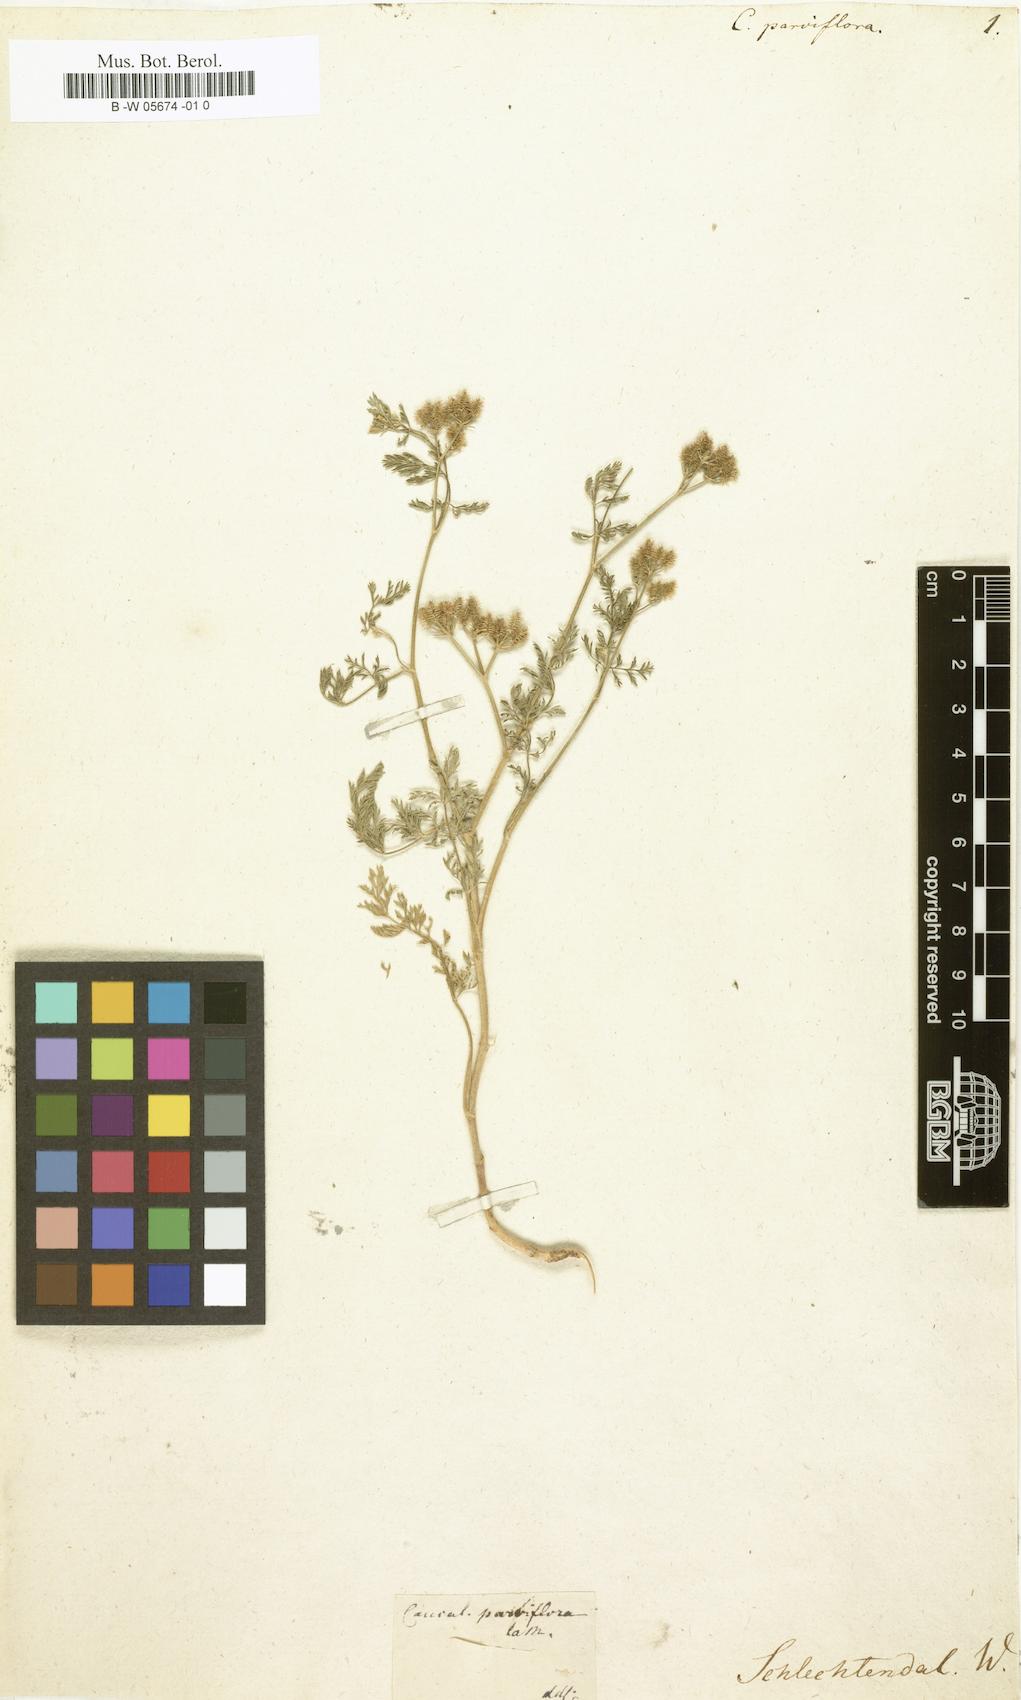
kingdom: Plantae
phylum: Tracheophyta
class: Magnoliopsida
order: Apiales
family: Apiaceae
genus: Torilis
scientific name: Torilis leptophylla
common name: Bristlefruit hedgeparsley
